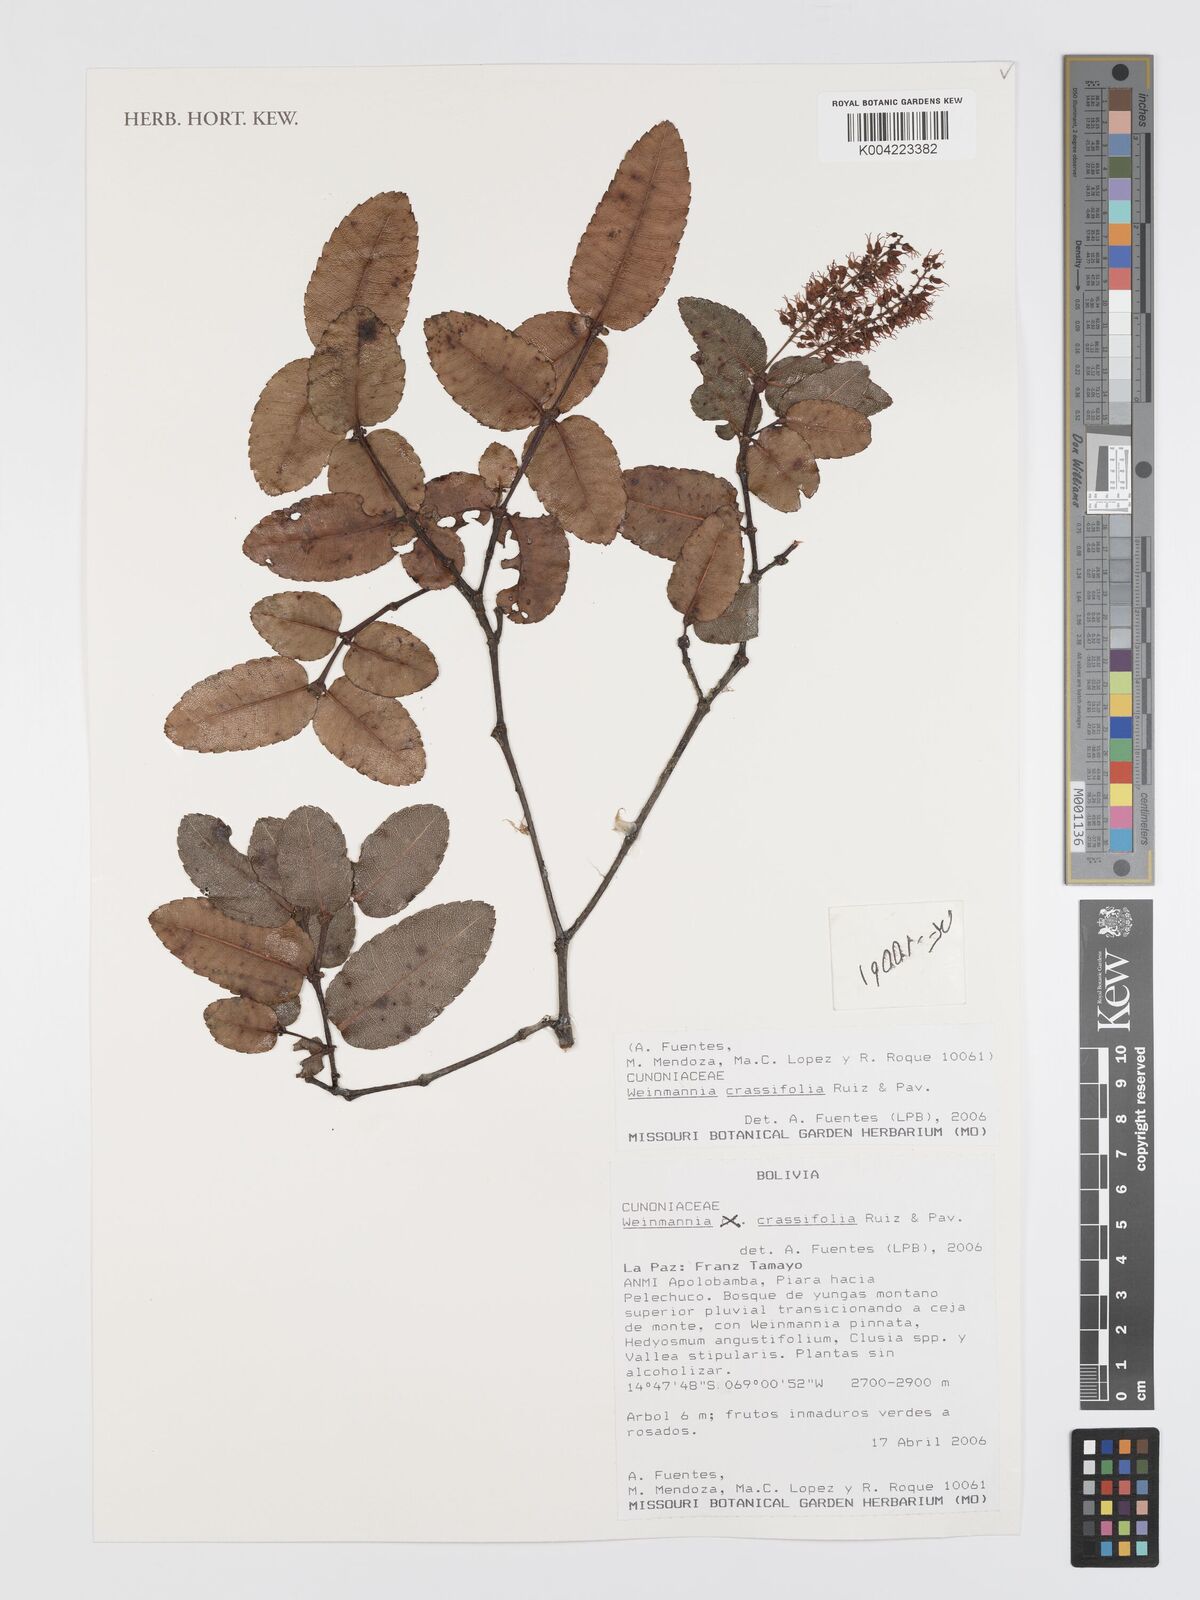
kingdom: Plantae
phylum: Tracheophyta
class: Magnoliopsida
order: Oxalidales
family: Cunoniaceae
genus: Weinmannia
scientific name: Weinmannia crassifolia
